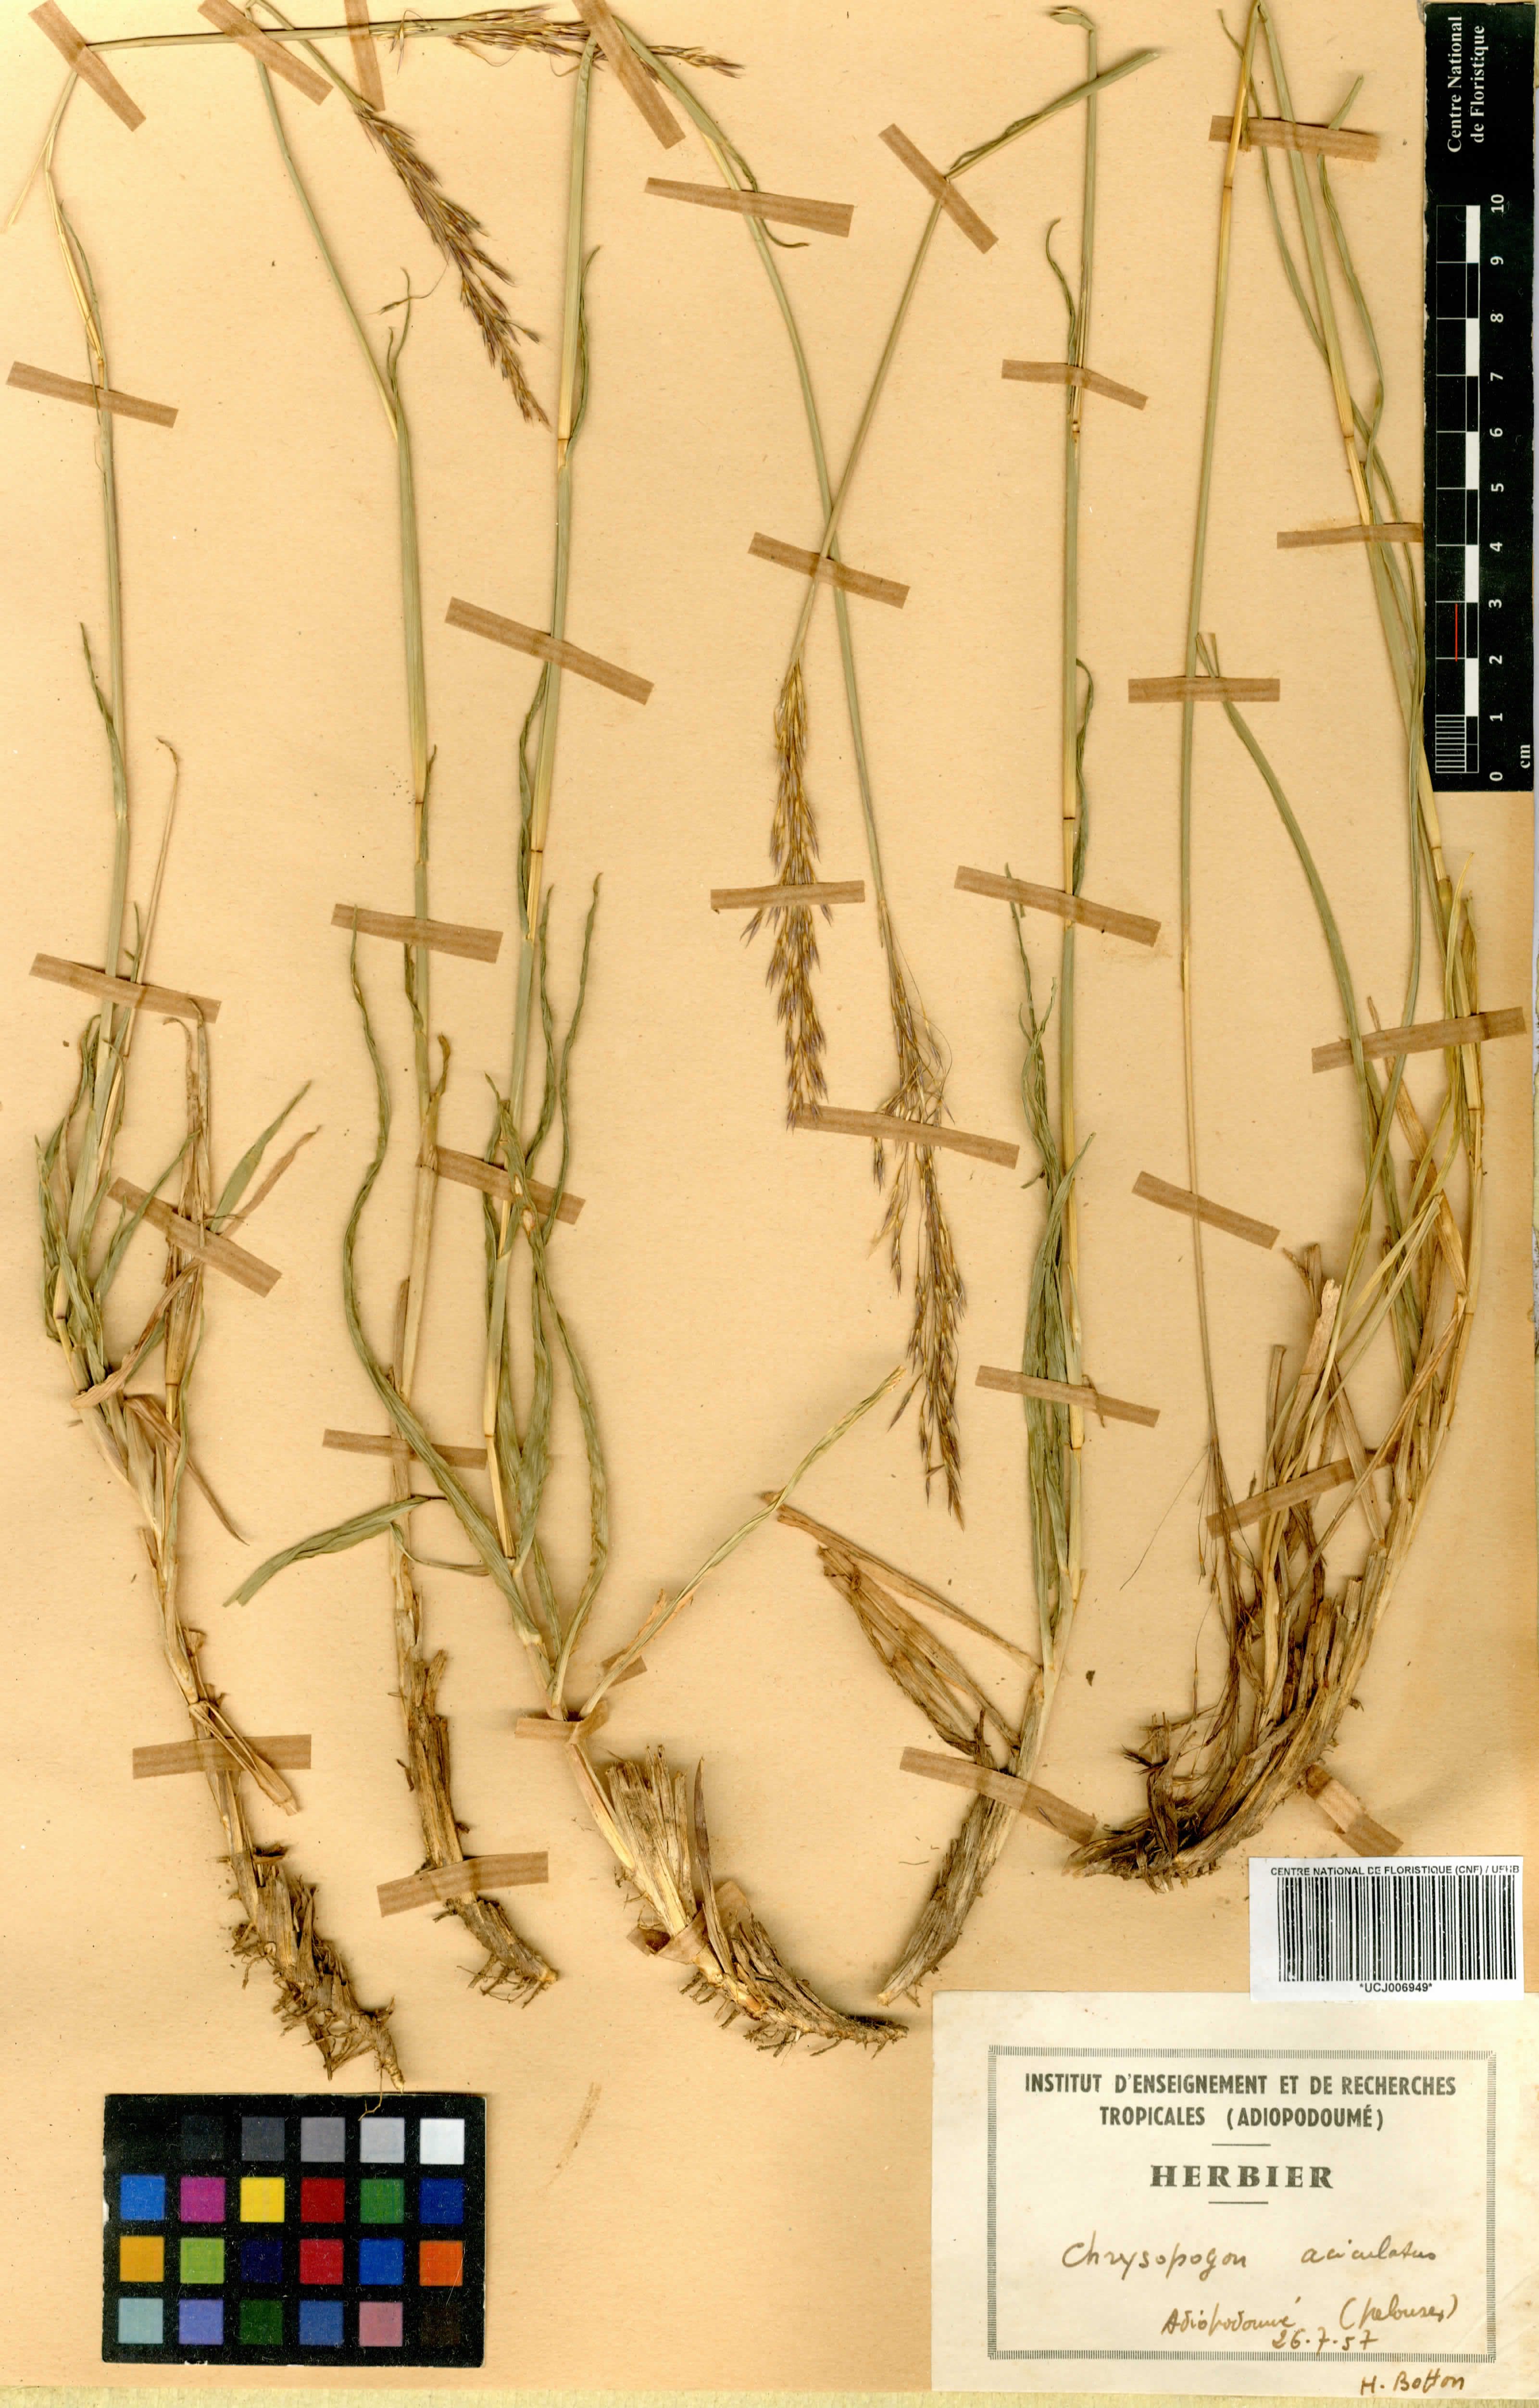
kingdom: Plantae
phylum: Tracheophyta
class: Liliopsida
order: Poales
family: Poaceae
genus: Chrysopogon
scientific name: Chrysopogon aciculatus
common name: Pilipiliula
